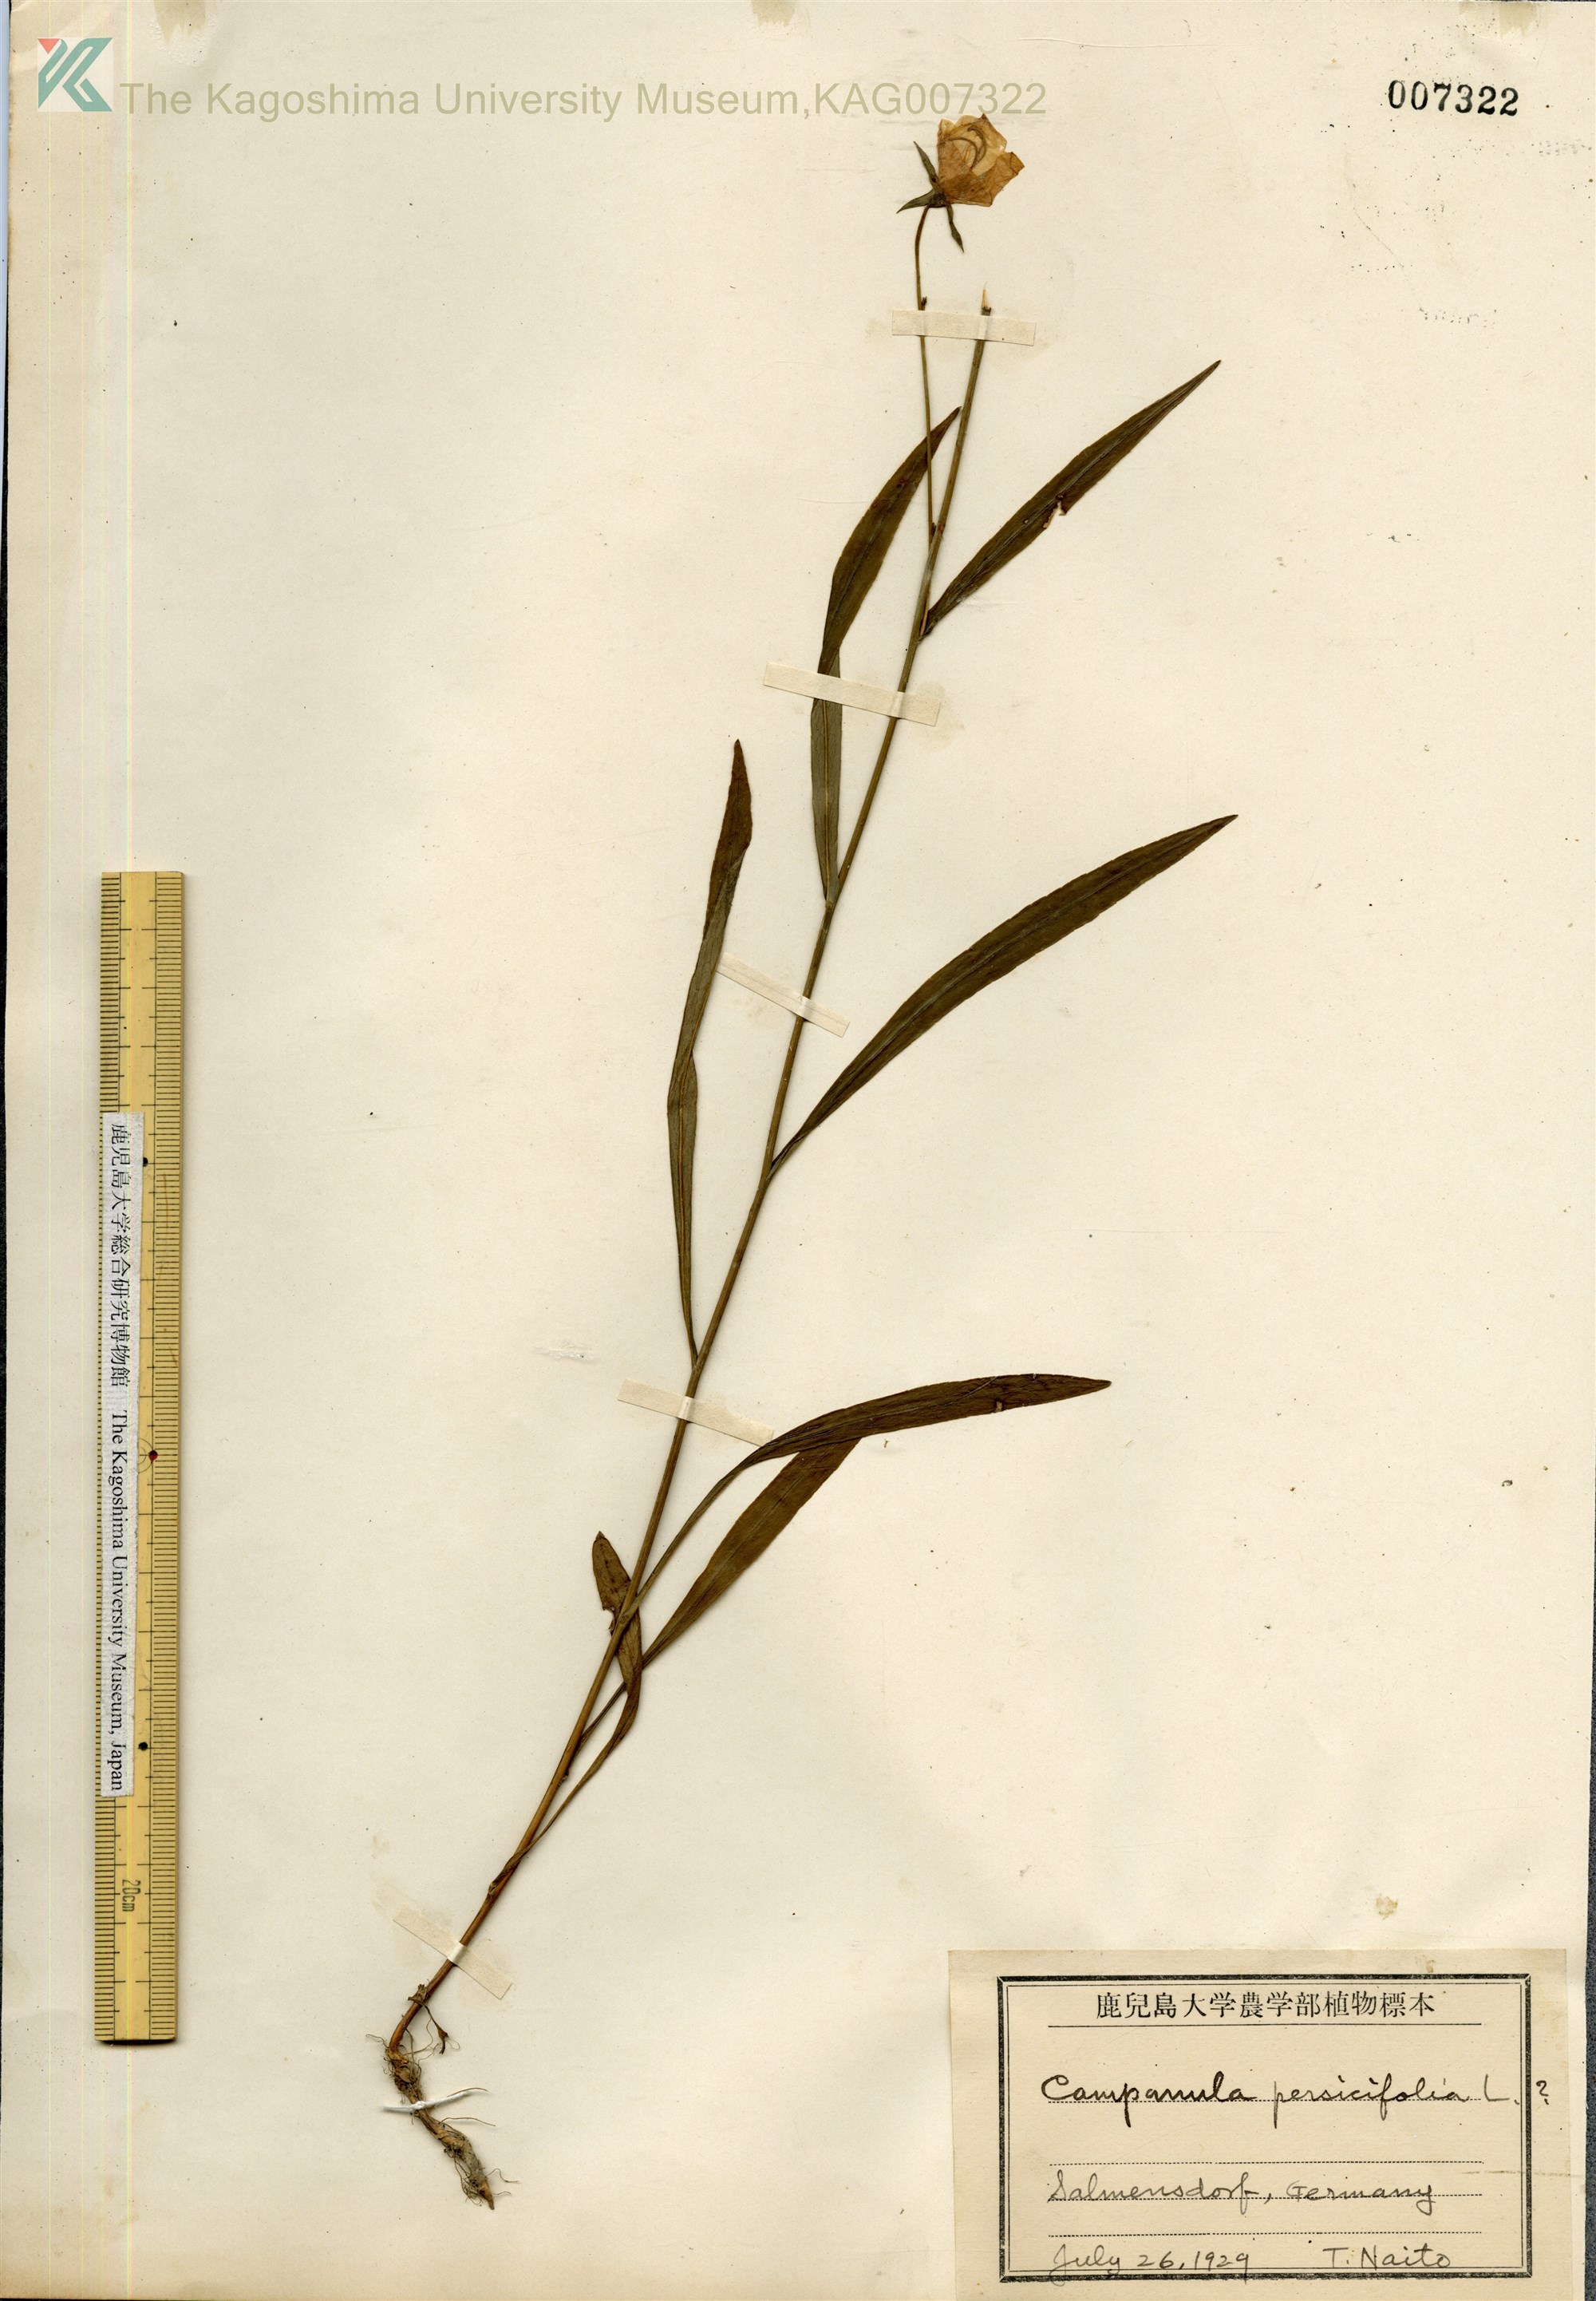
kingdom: Plantae
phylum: Tracheophyta
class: Magnoliopsida
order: Asterales
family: Campanulaceae
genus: Campanula
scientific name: Campanula persicifolia
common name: Peach-leaved bellflower
